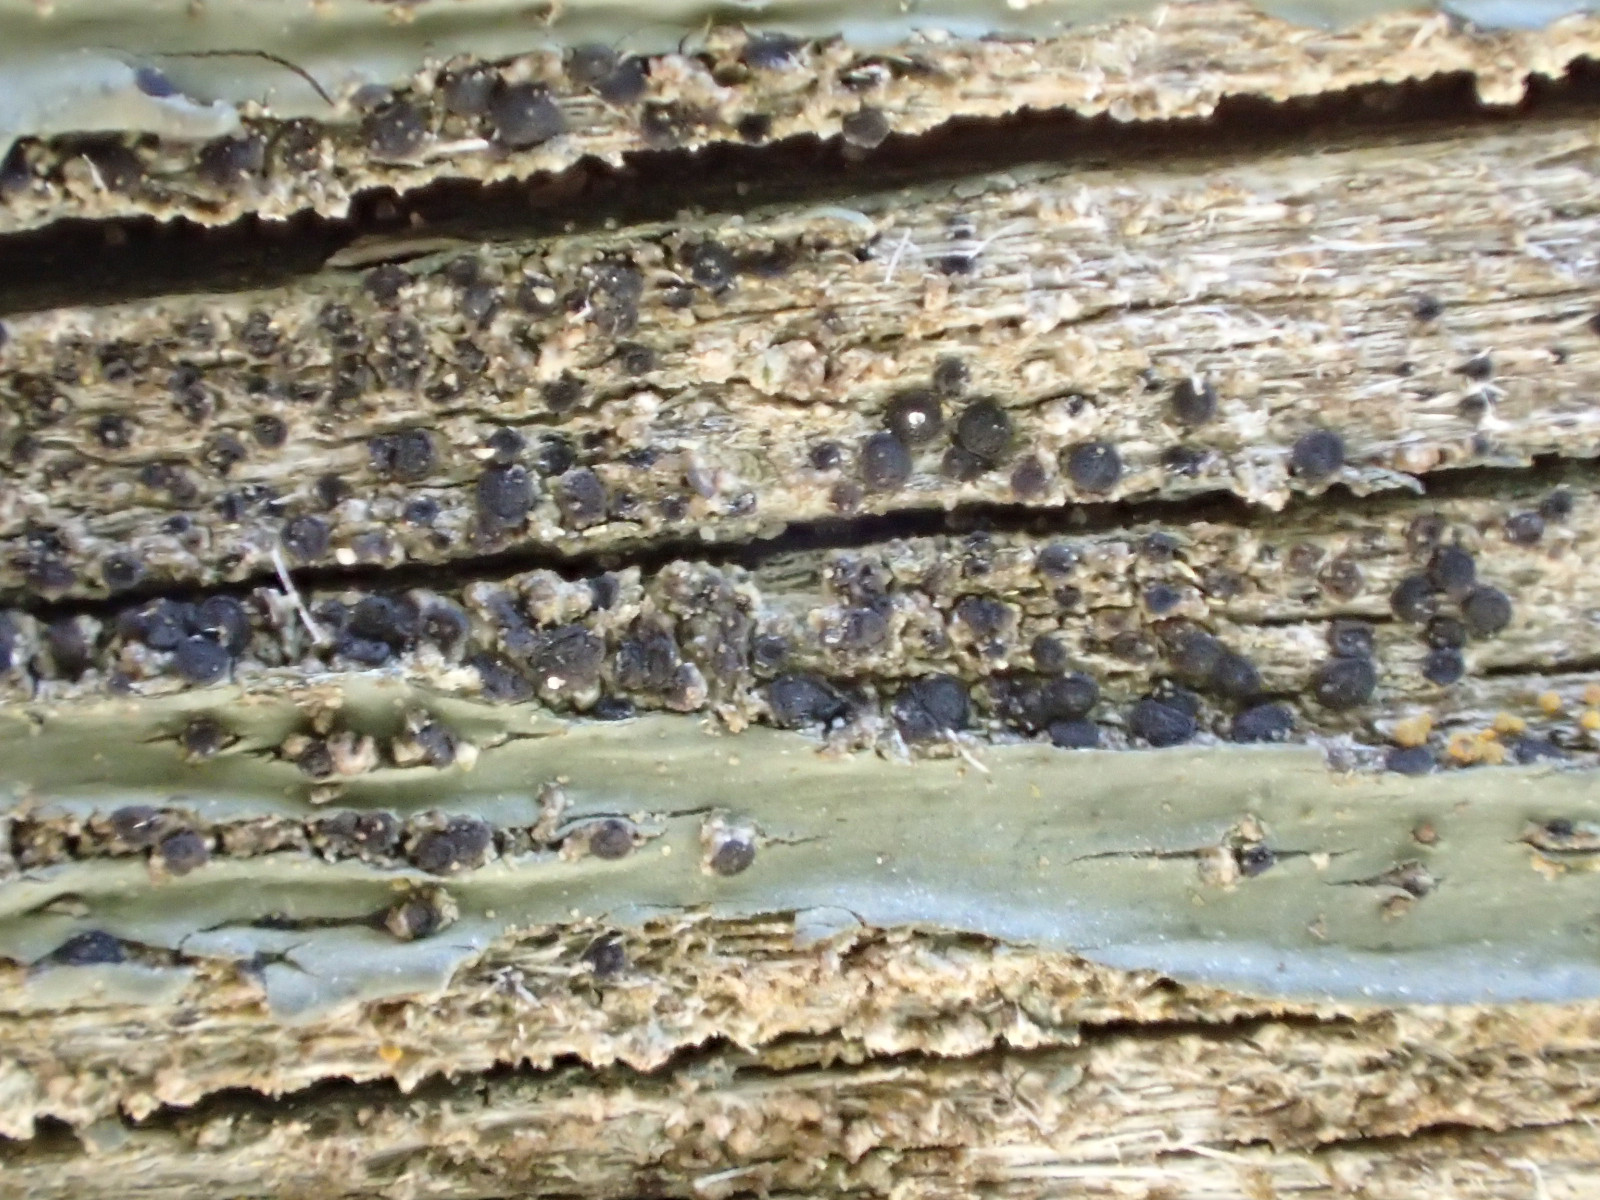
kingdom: Fungi
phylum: Ascomycota
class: Lecanoromycetes
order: Caliciales
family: Caliciaceae
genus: Amandinea
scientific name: Amandinea punctata
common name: liden sortskivelav
